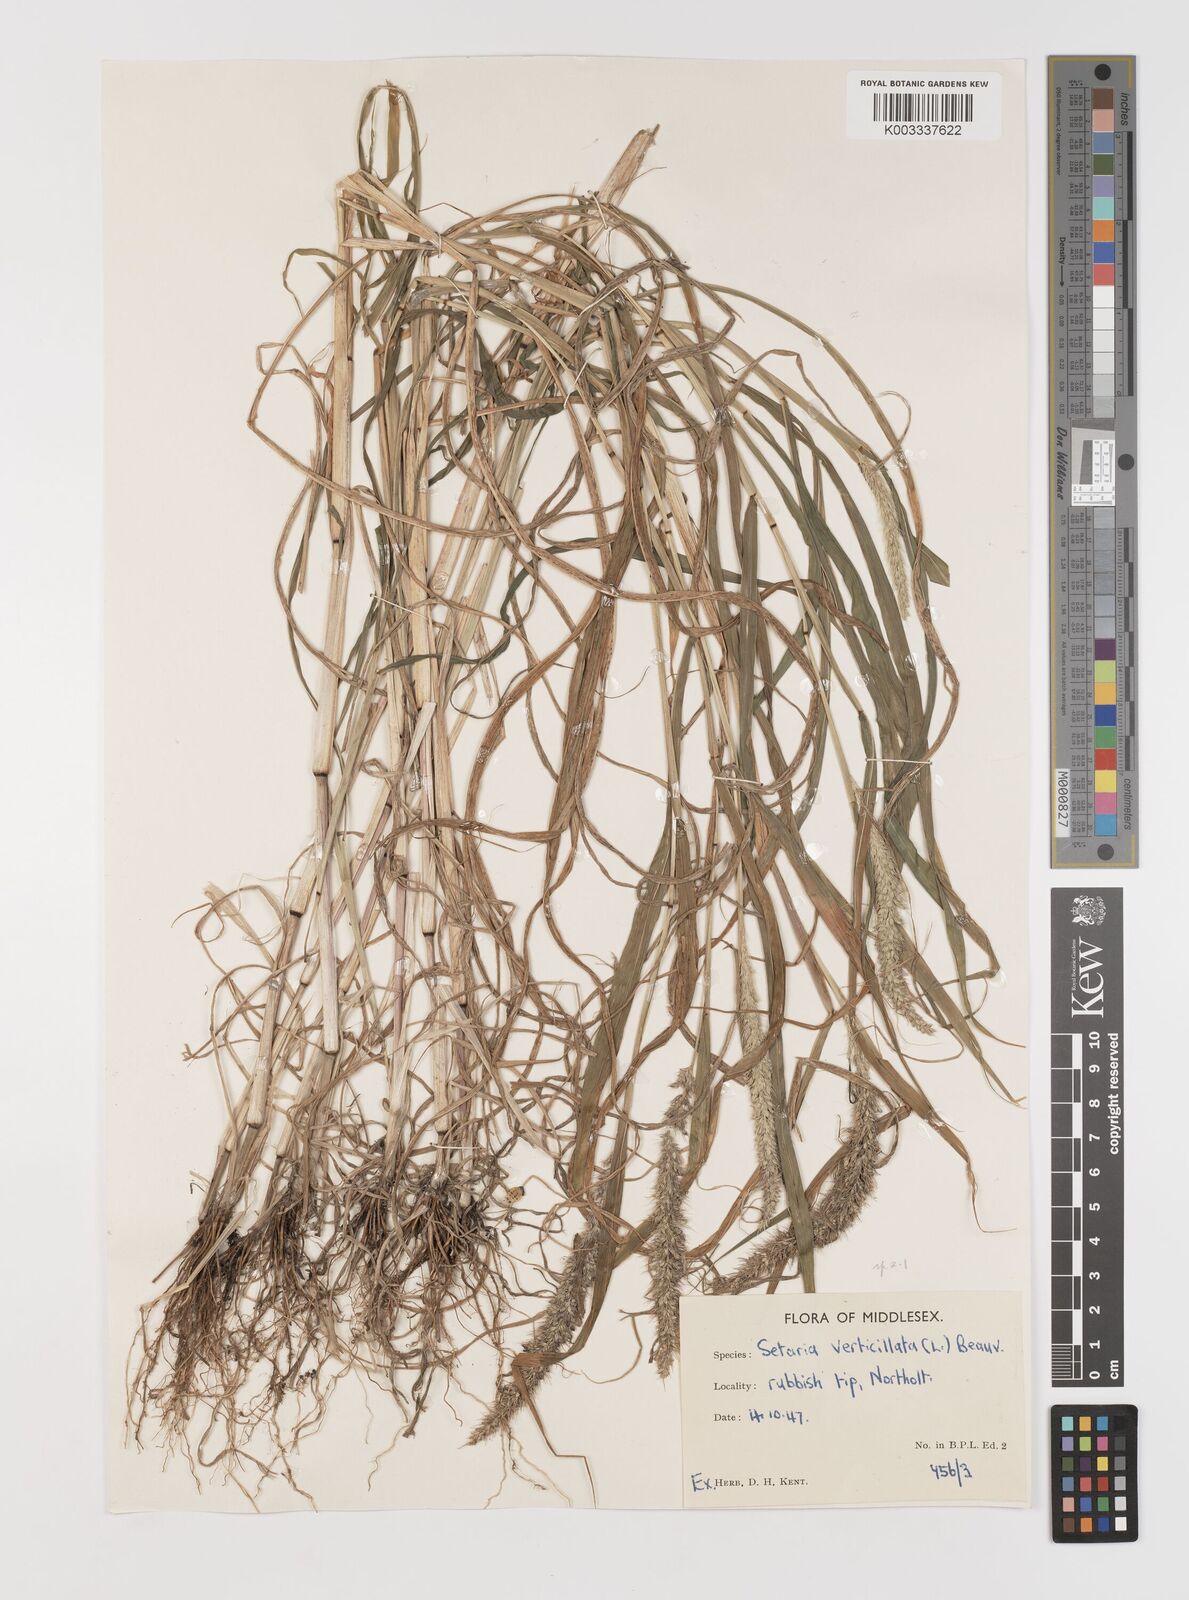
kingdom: Plantae
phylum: Tracheophyta
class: Liliopsida
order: Poales
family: Poaceae
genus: Setaria
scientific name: Setaria
